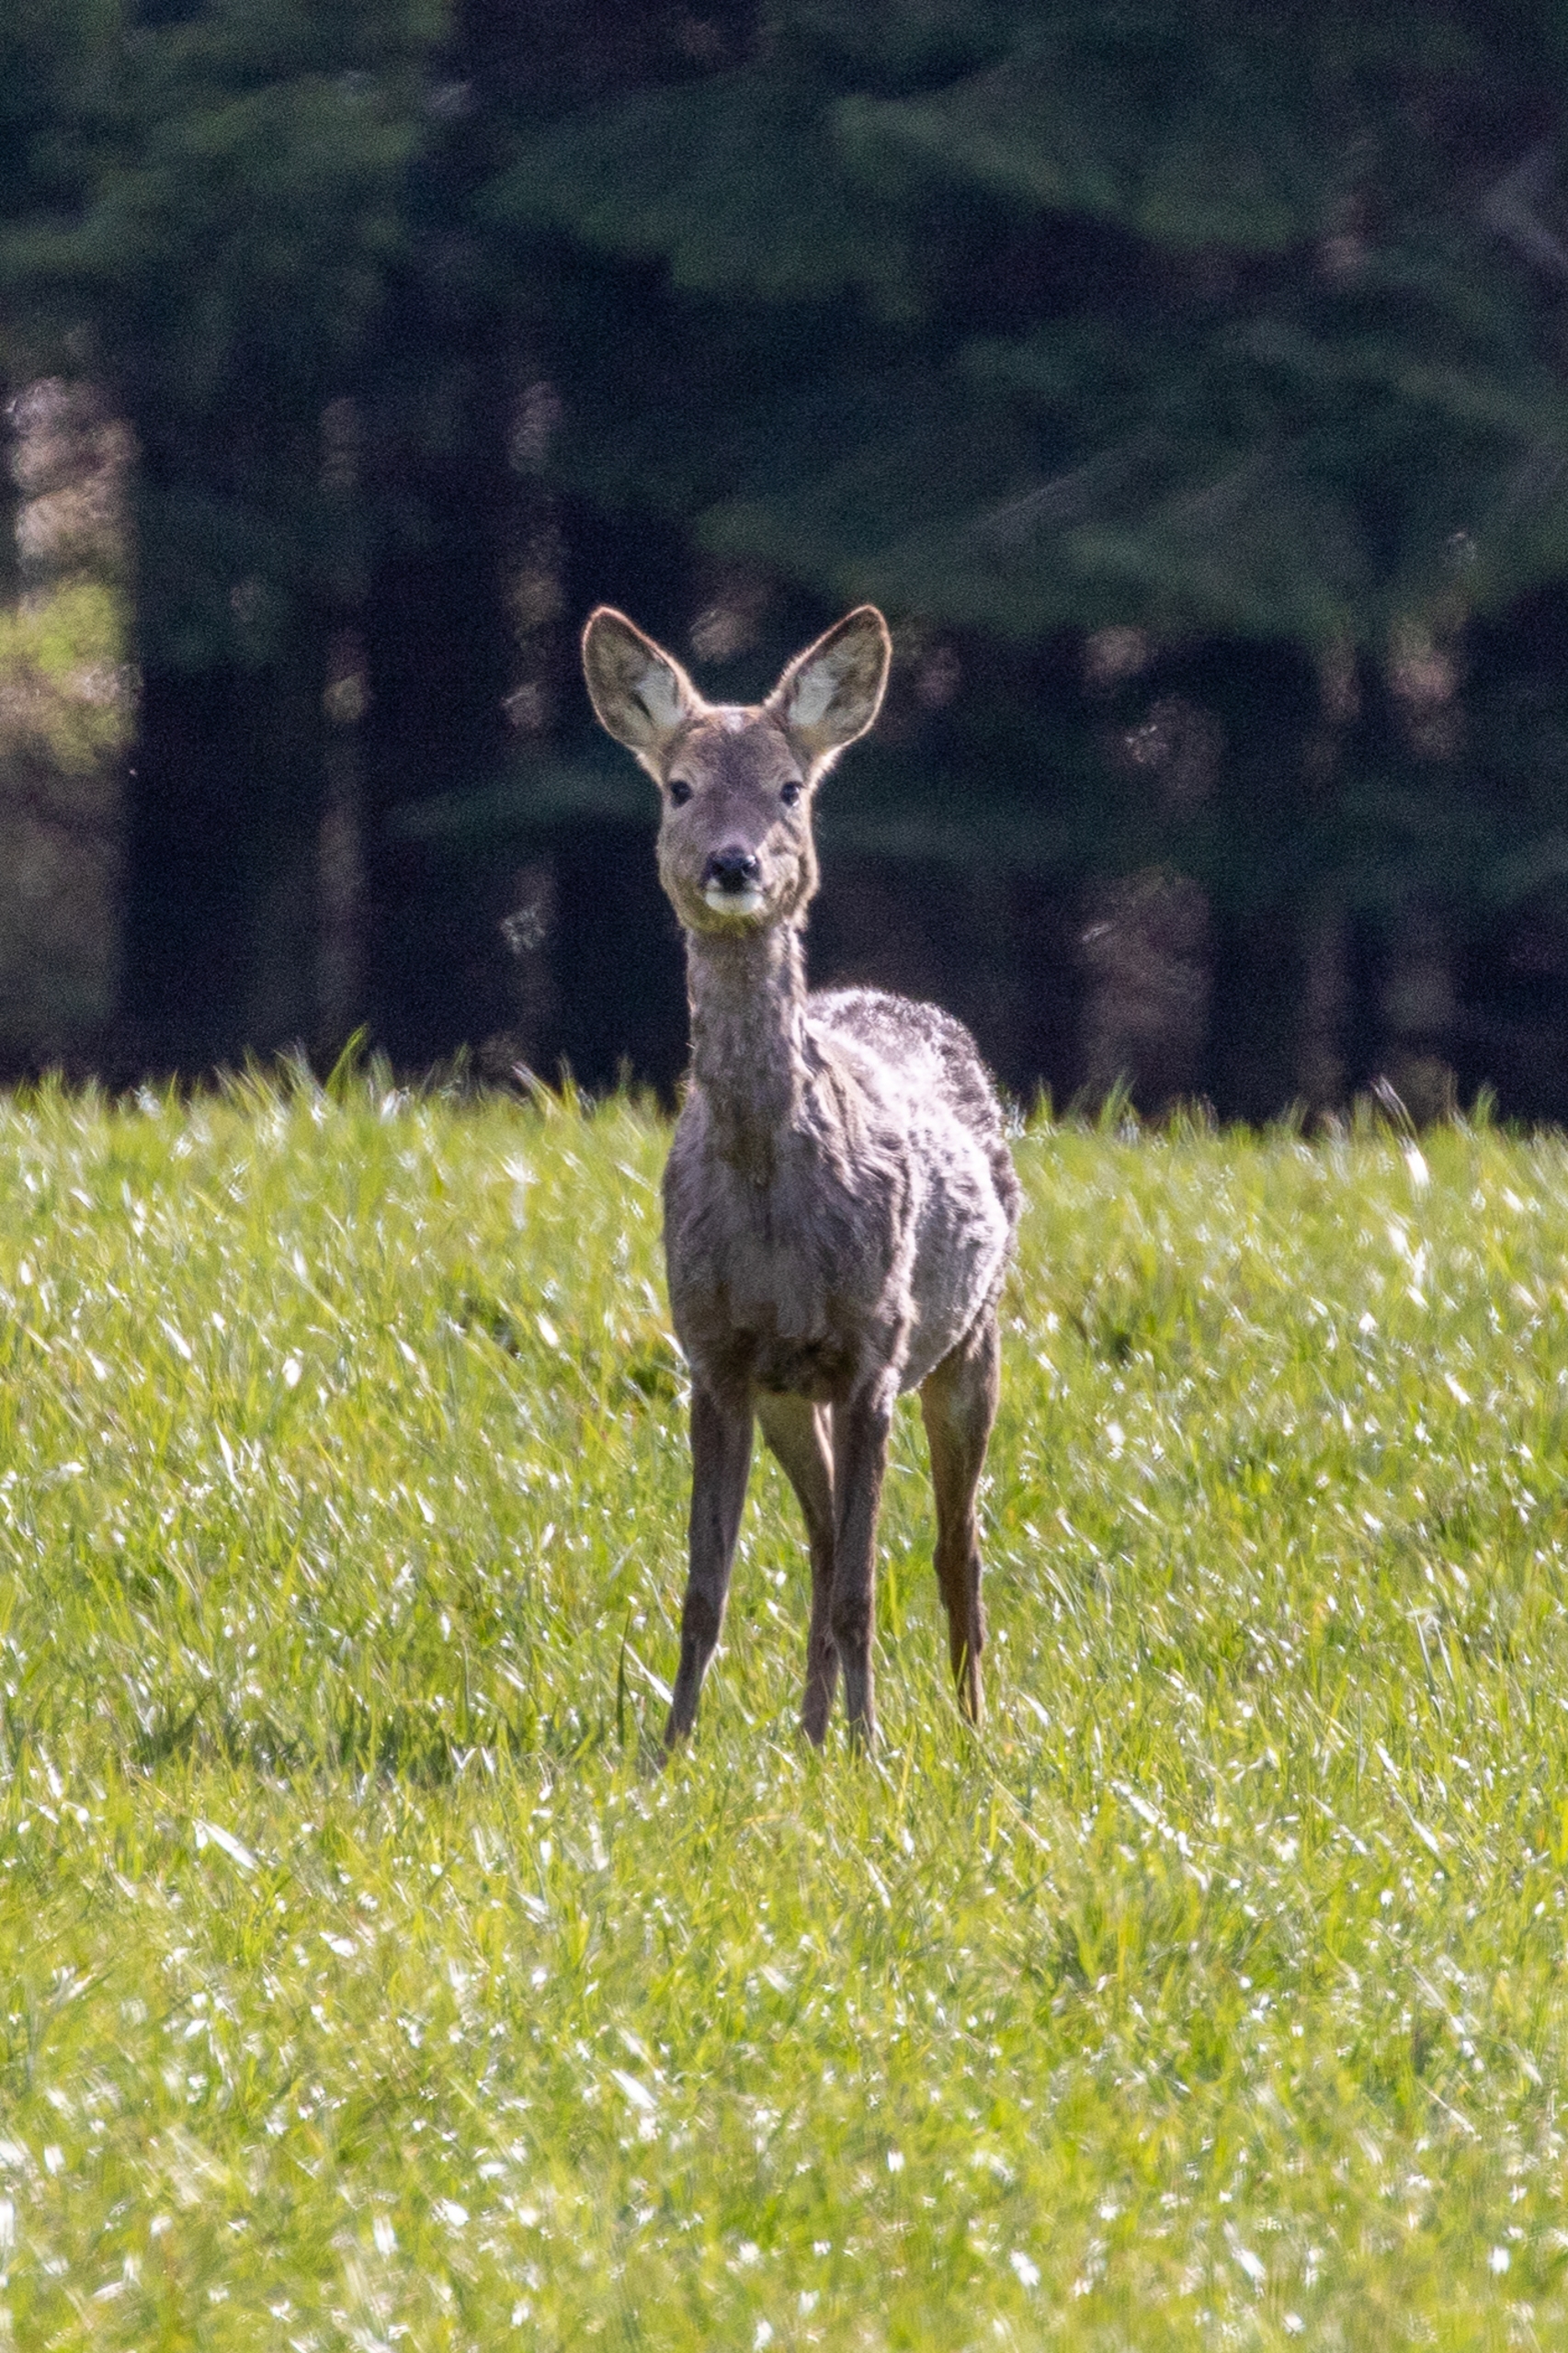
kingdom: Animalia
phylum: Chordata
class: Mammalia
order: Artiodactyla
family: Cervidae
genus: Capreolus
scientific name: Capreolus capreolus
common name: Rådyr
